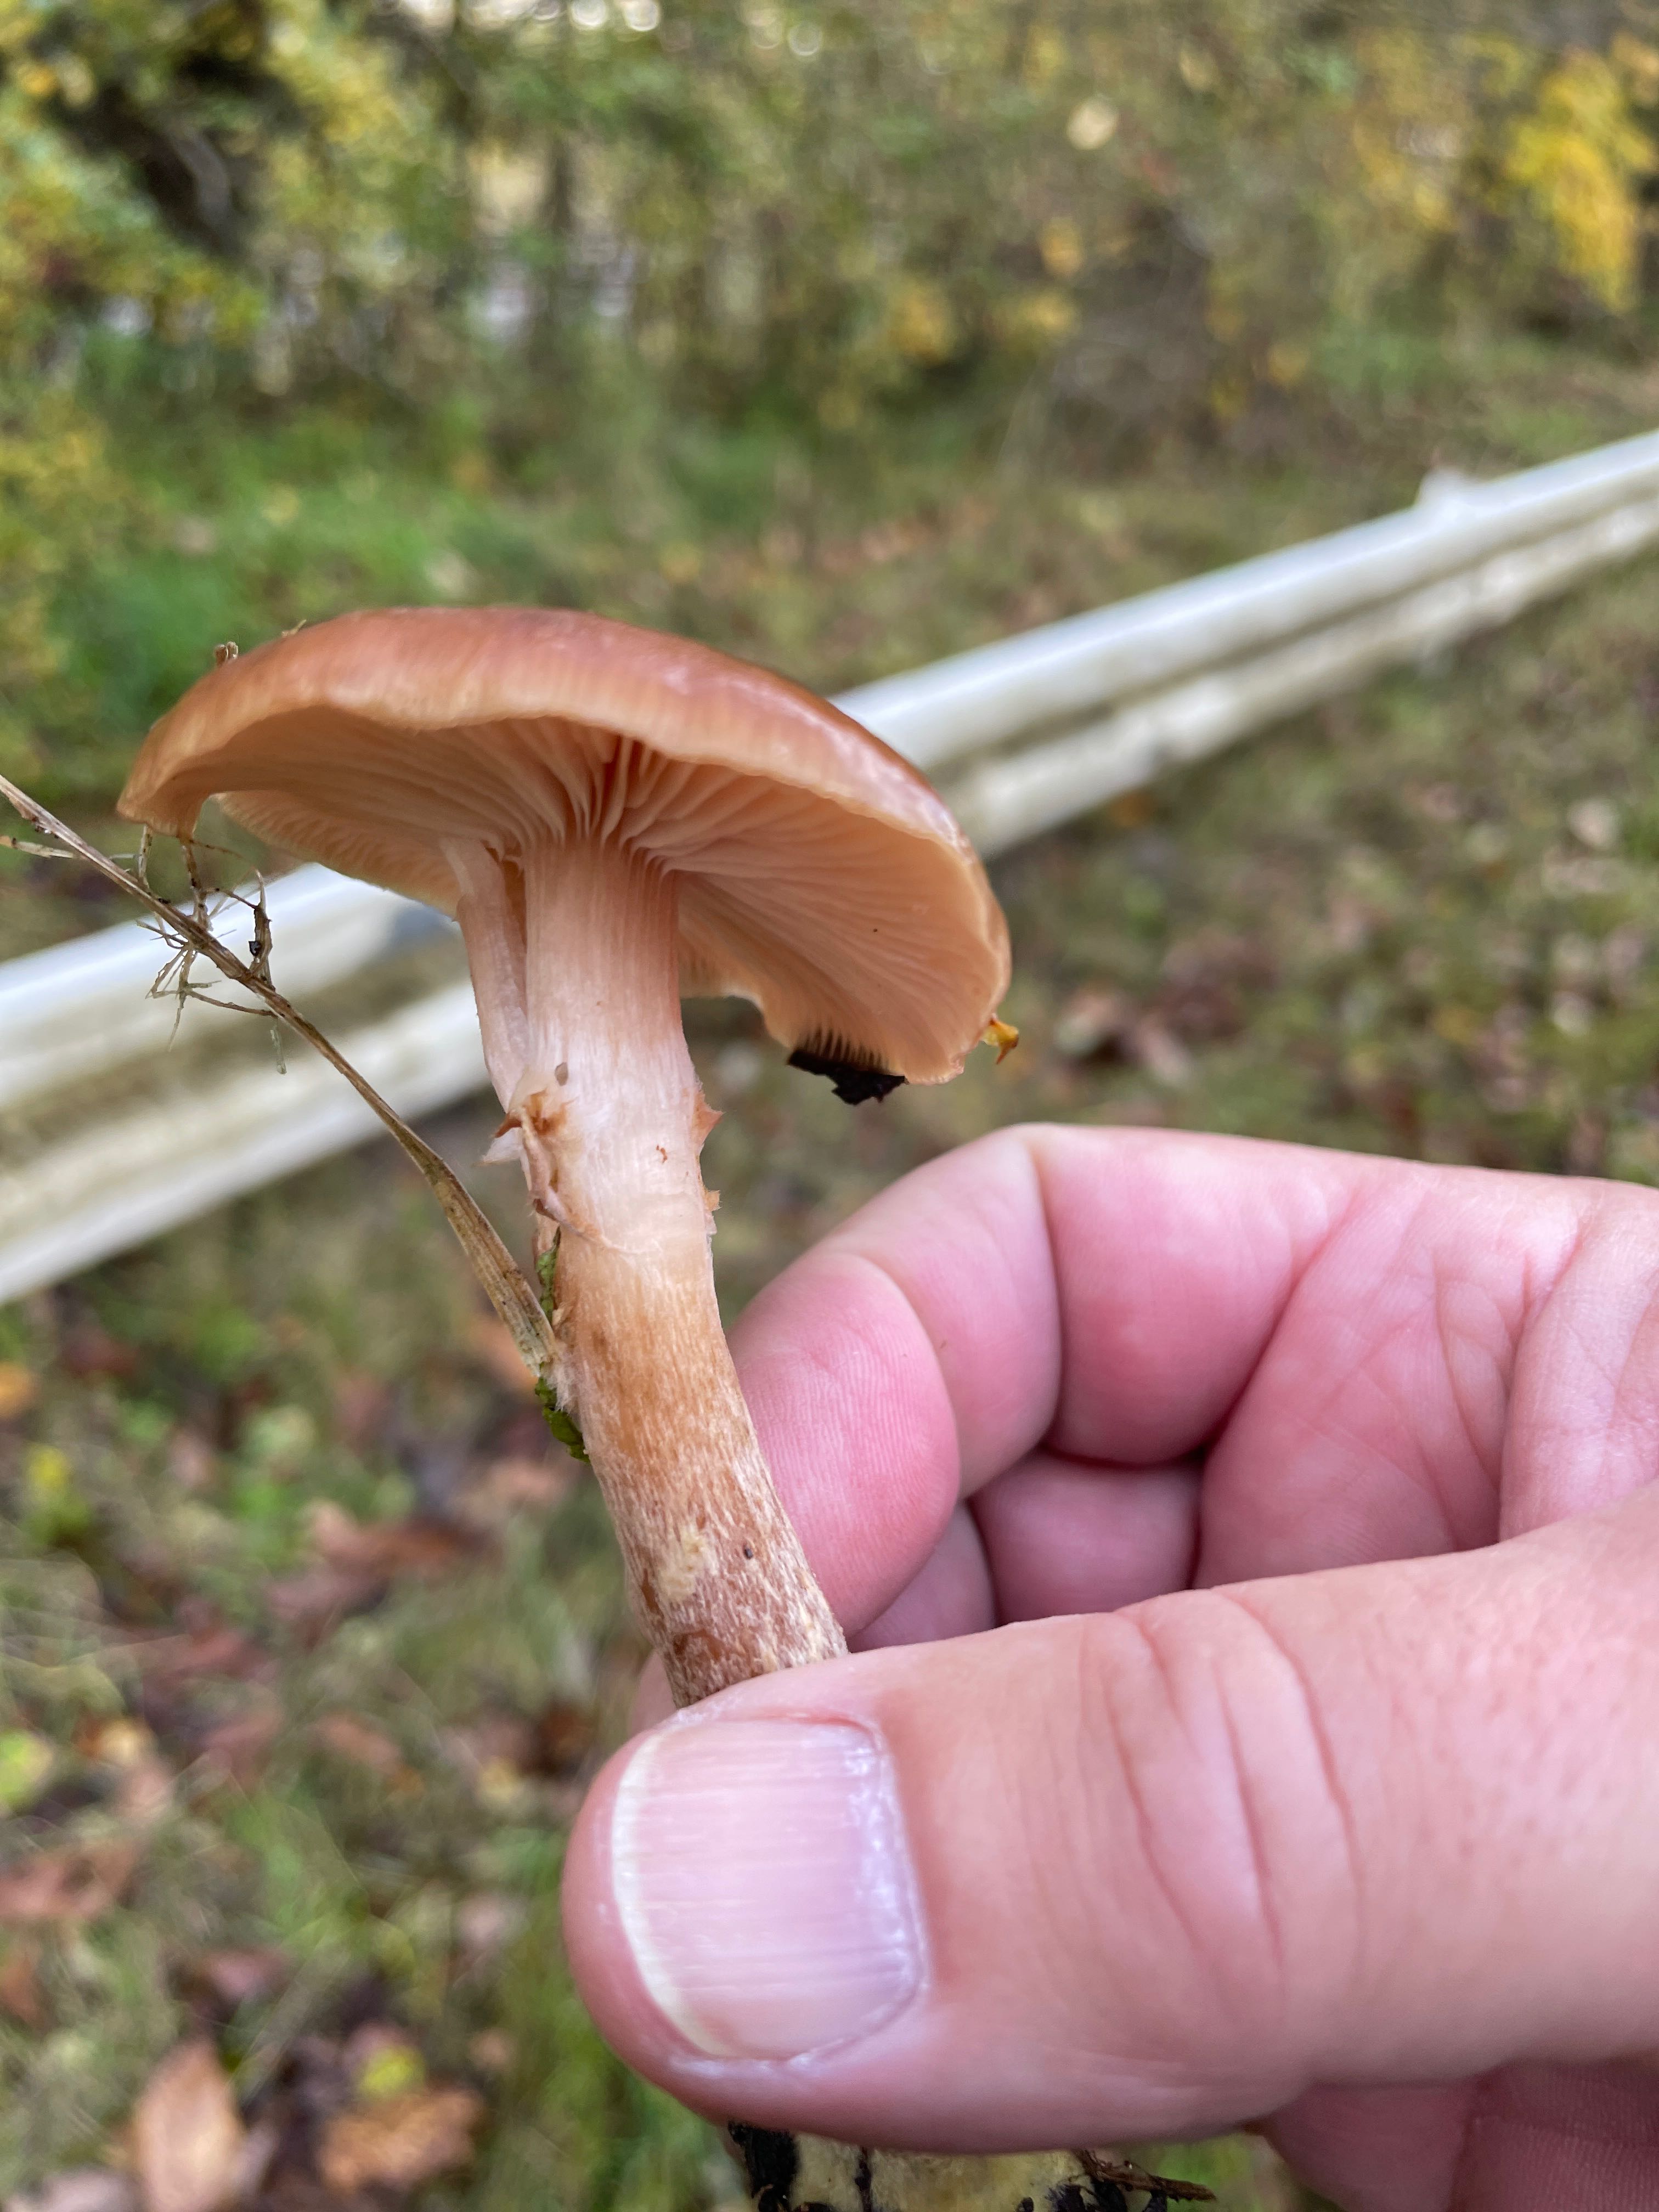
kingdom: Fungi
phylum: Basidiomycota
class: Agaricomycetes
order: Agaricales
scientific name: Agaricales
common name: champignonordenen
